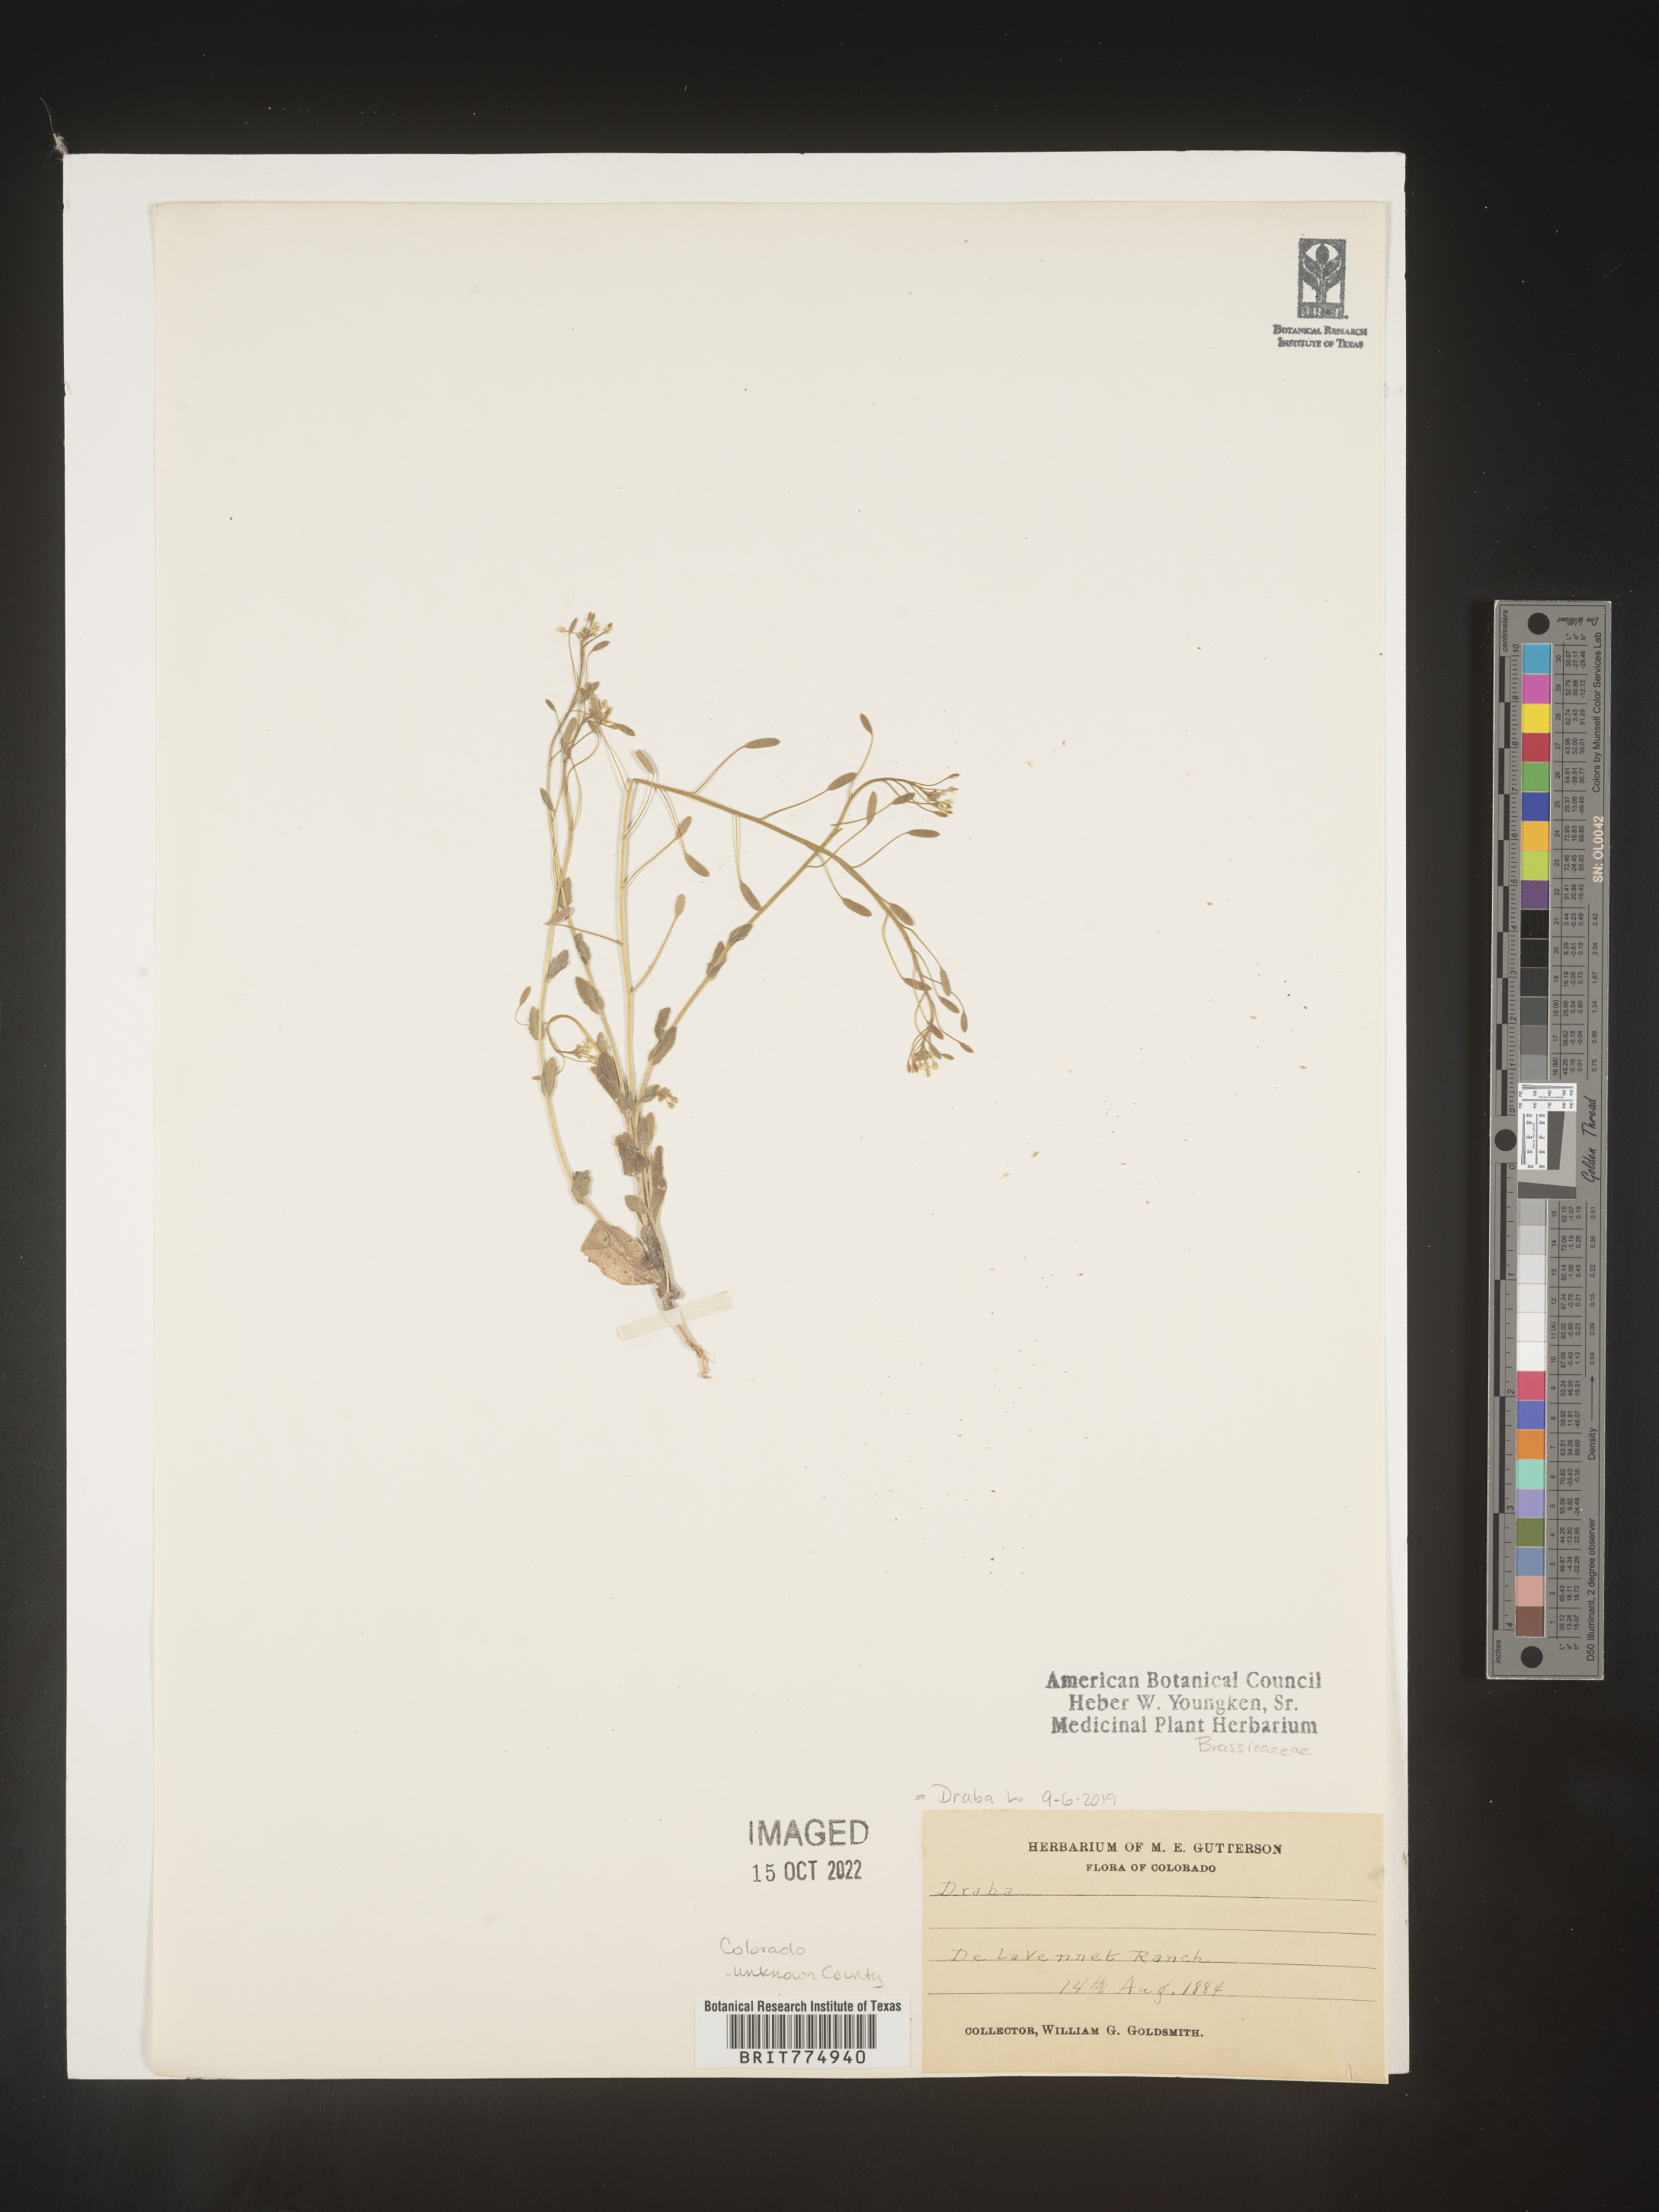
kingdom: Plantae
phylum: Tracheophyta
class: Magnoliopsida
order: Brassicales
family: Brassicaceae
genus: Draba
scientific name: Draba
